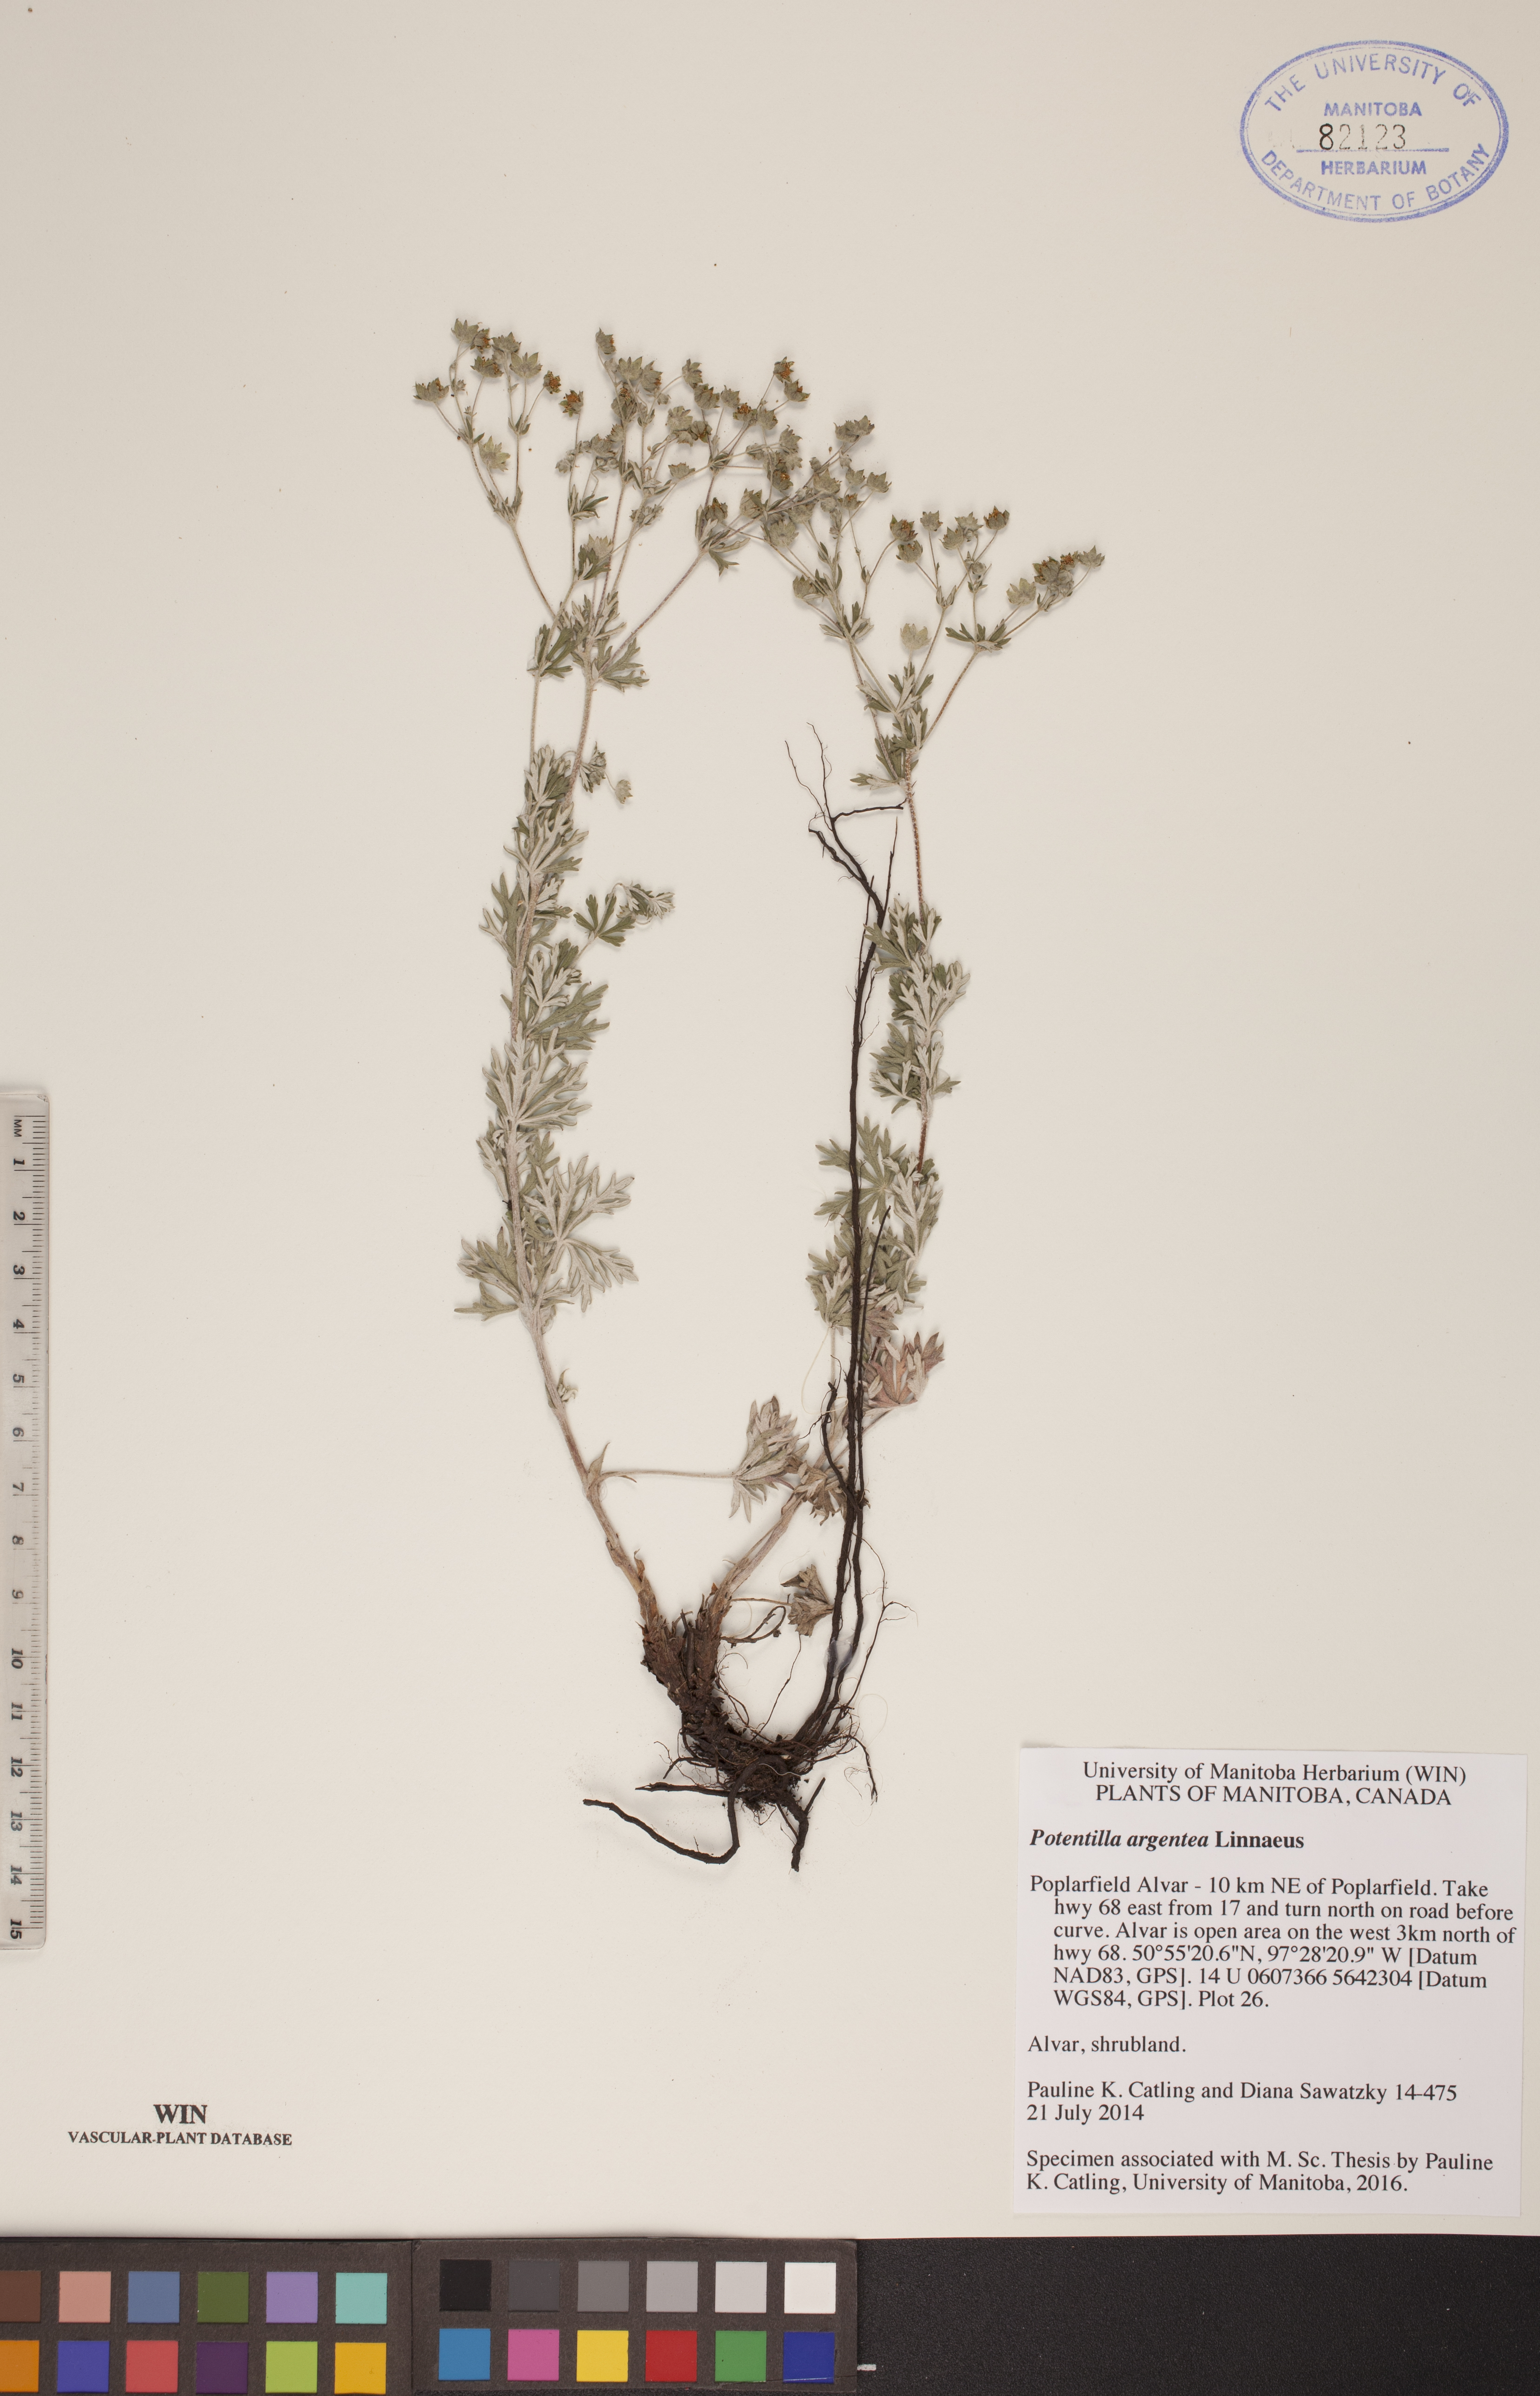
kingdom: Plantae
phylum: Tracheophyta
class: Magnoliopsida
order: Rosales
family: Rosaceae
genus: Potentilla
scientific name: Potentilla argentea
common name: Hoary cinquefoil
